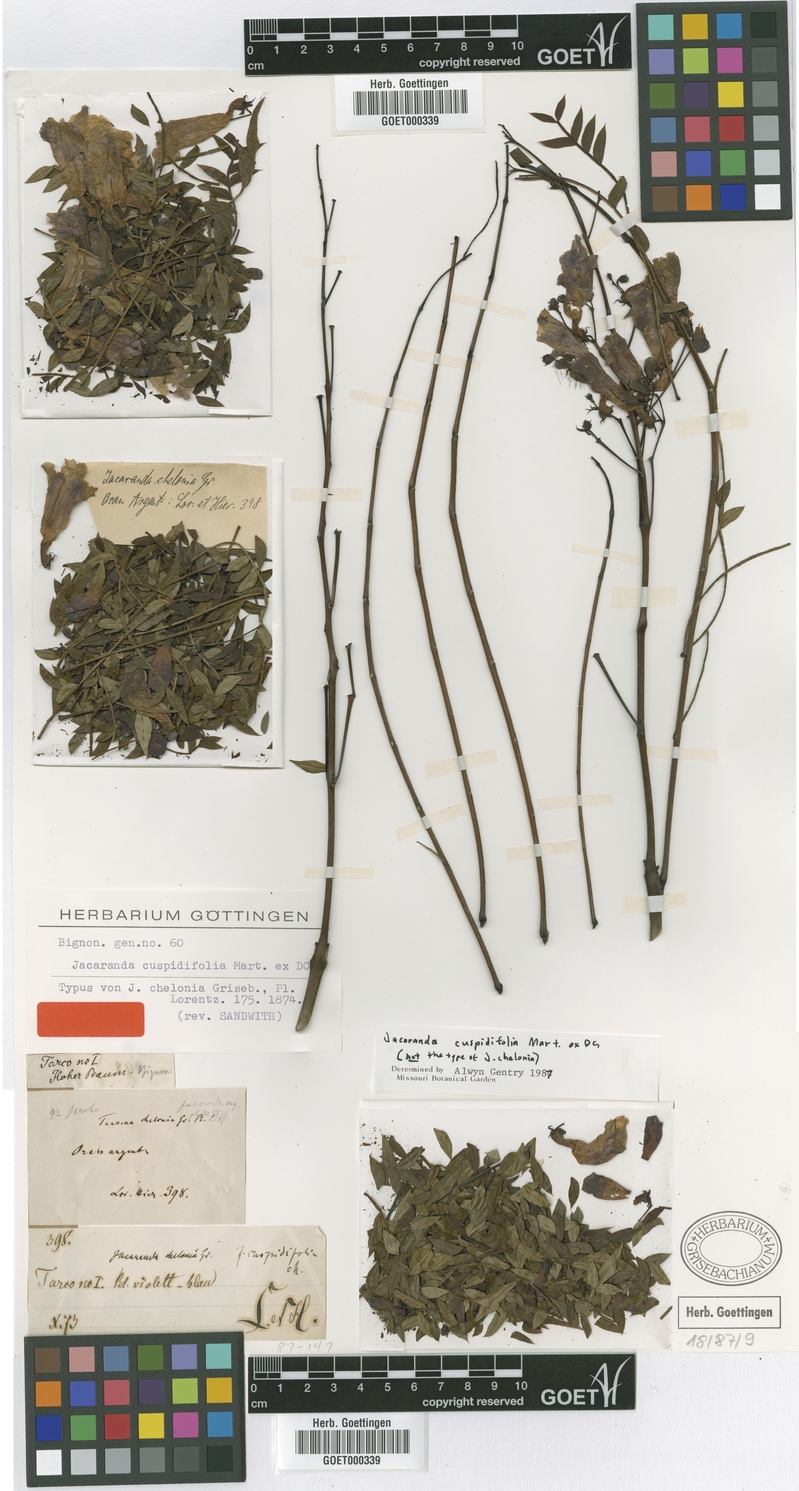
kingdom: Plantae
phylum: Tracheophyta
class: Magnoliopsida
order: Lamiales
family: Bignoniaceae
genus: Jacaranda
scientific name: Jacaranda cuspidifolia
